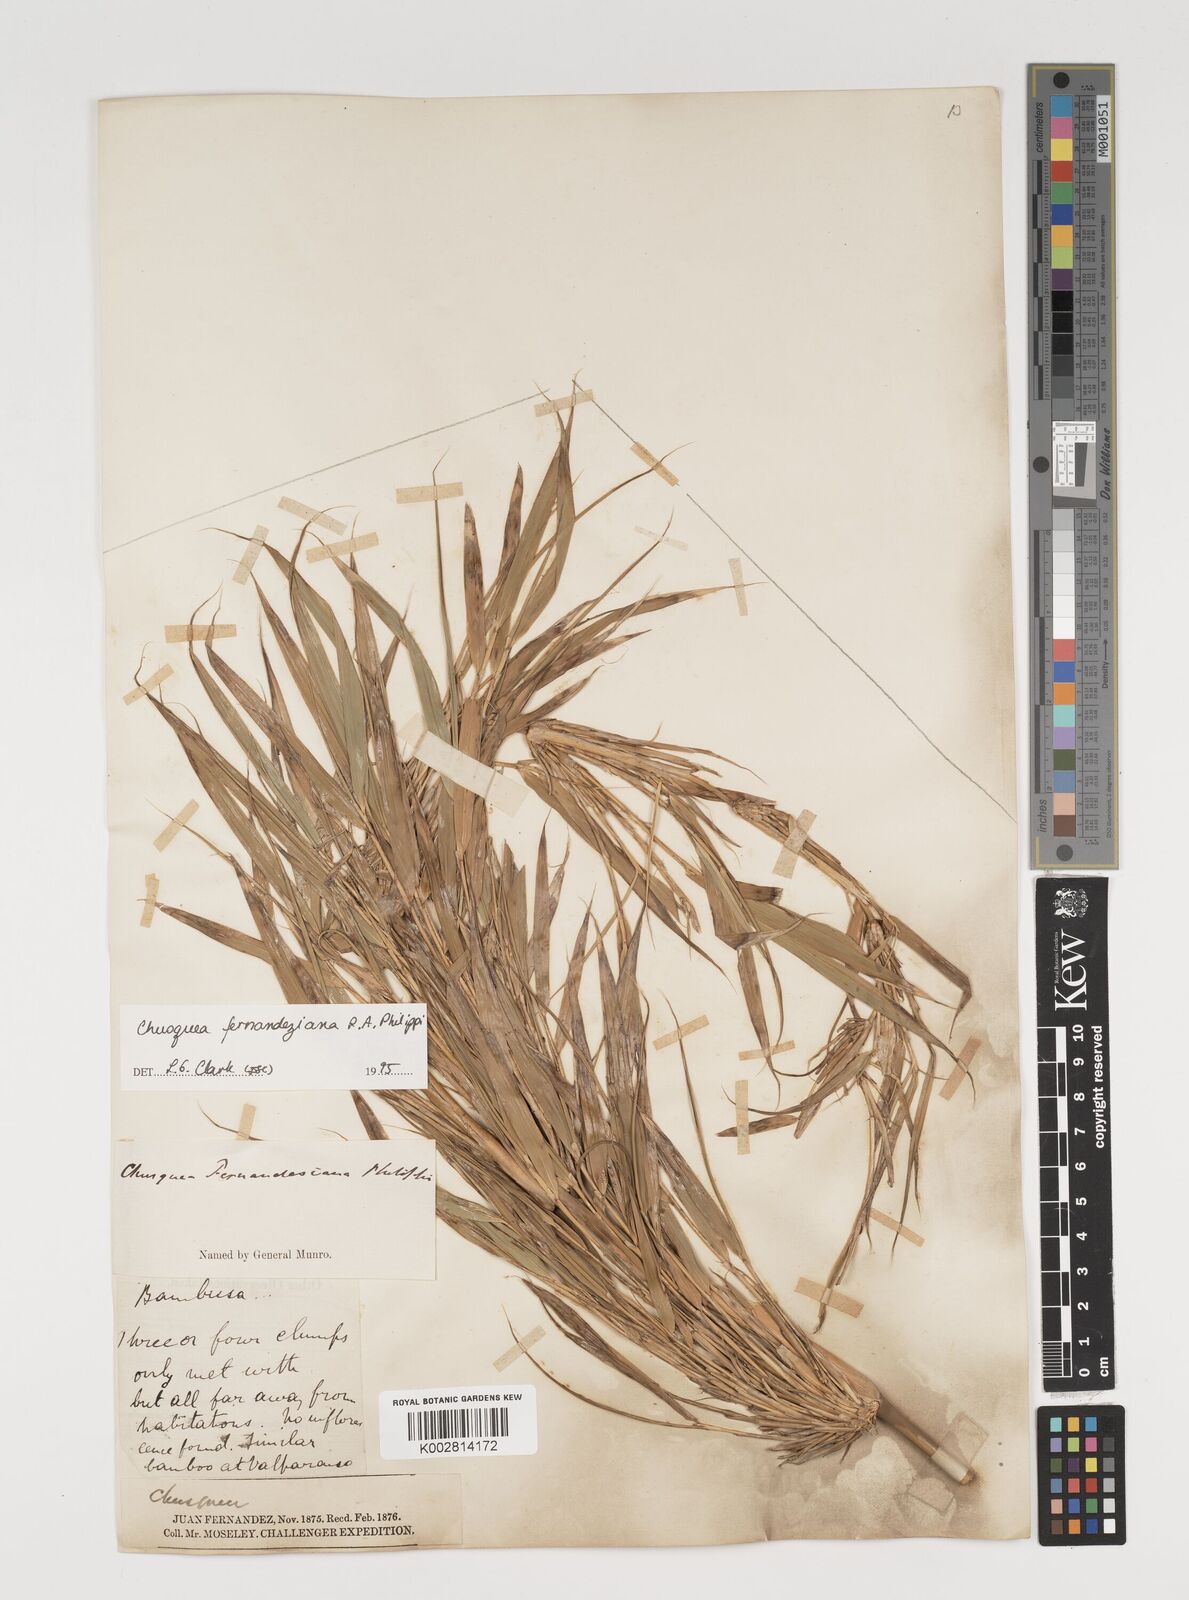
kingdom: Plantae
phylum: Tracheophyta
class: Liliopsida
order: Poales
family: Poaceae
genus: Chusquea
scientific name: Chusquea ligulata
